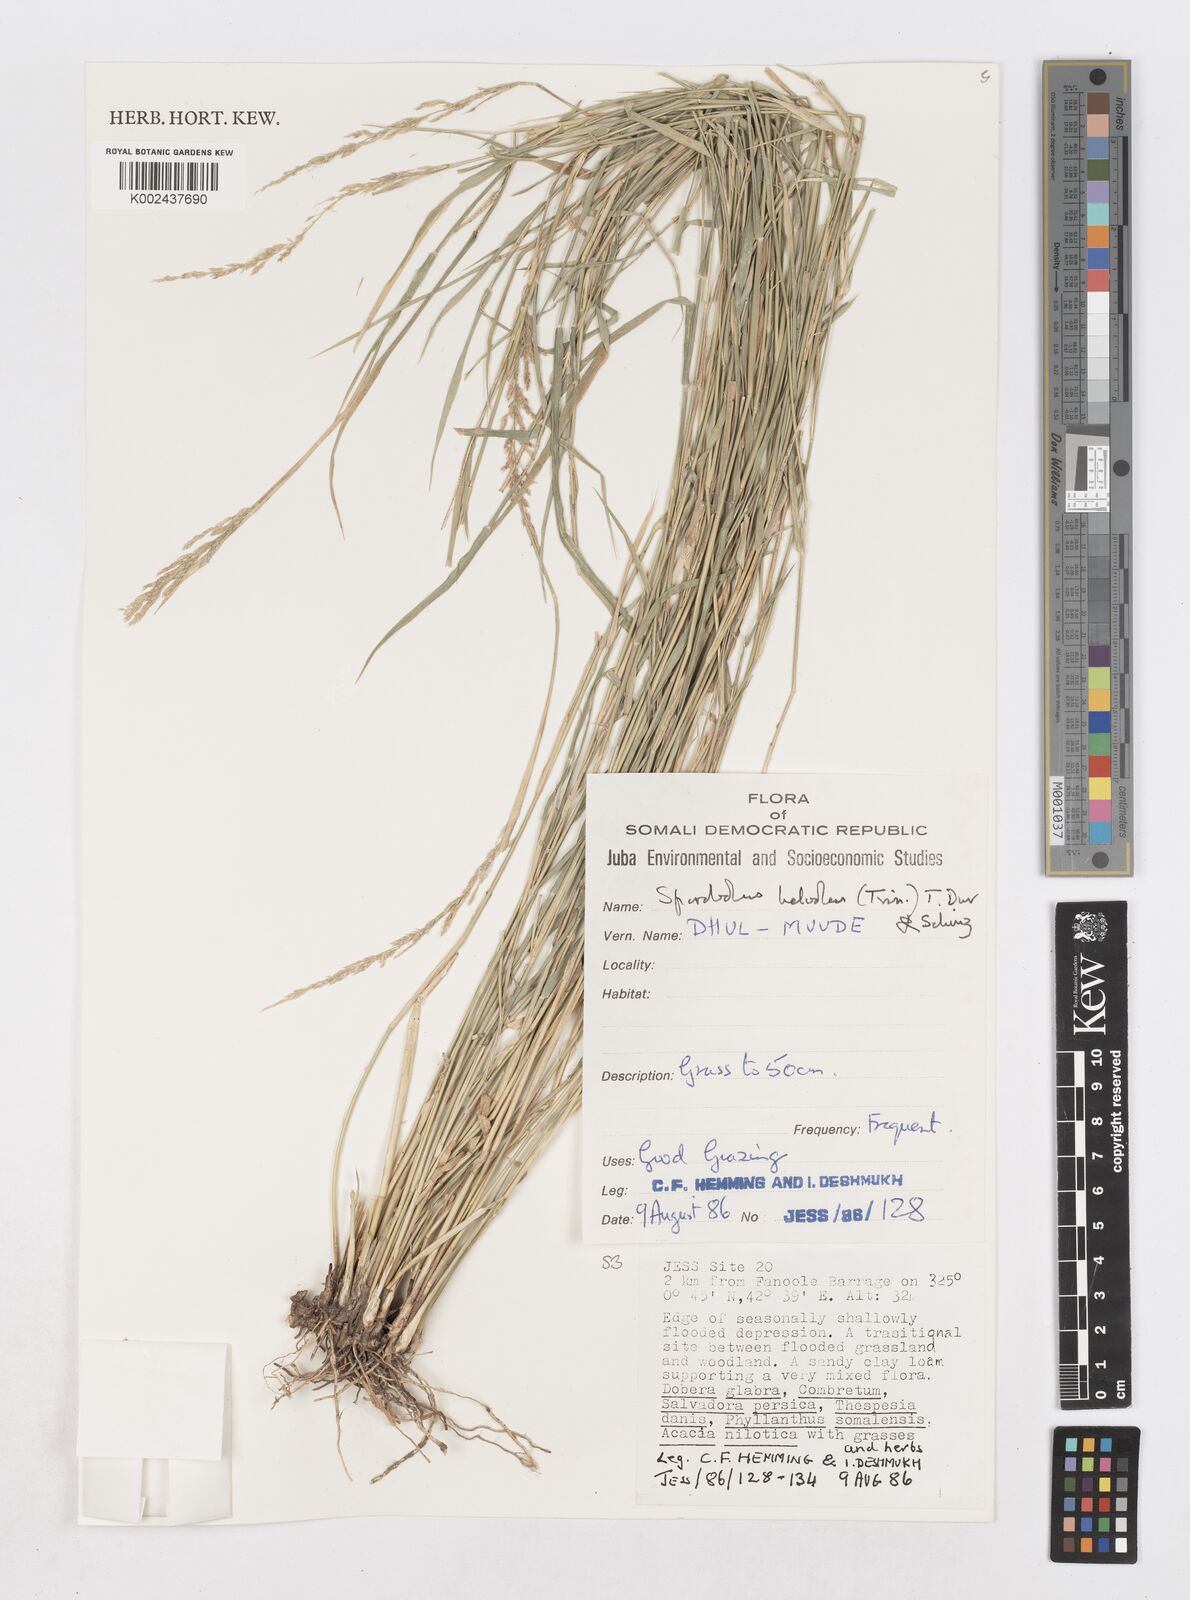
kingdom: Plantae
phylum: Tracheophyta
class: Liliopsida
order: Poales
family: Poaceae
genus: Sporobolus
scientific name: Sporobolus helvolus
